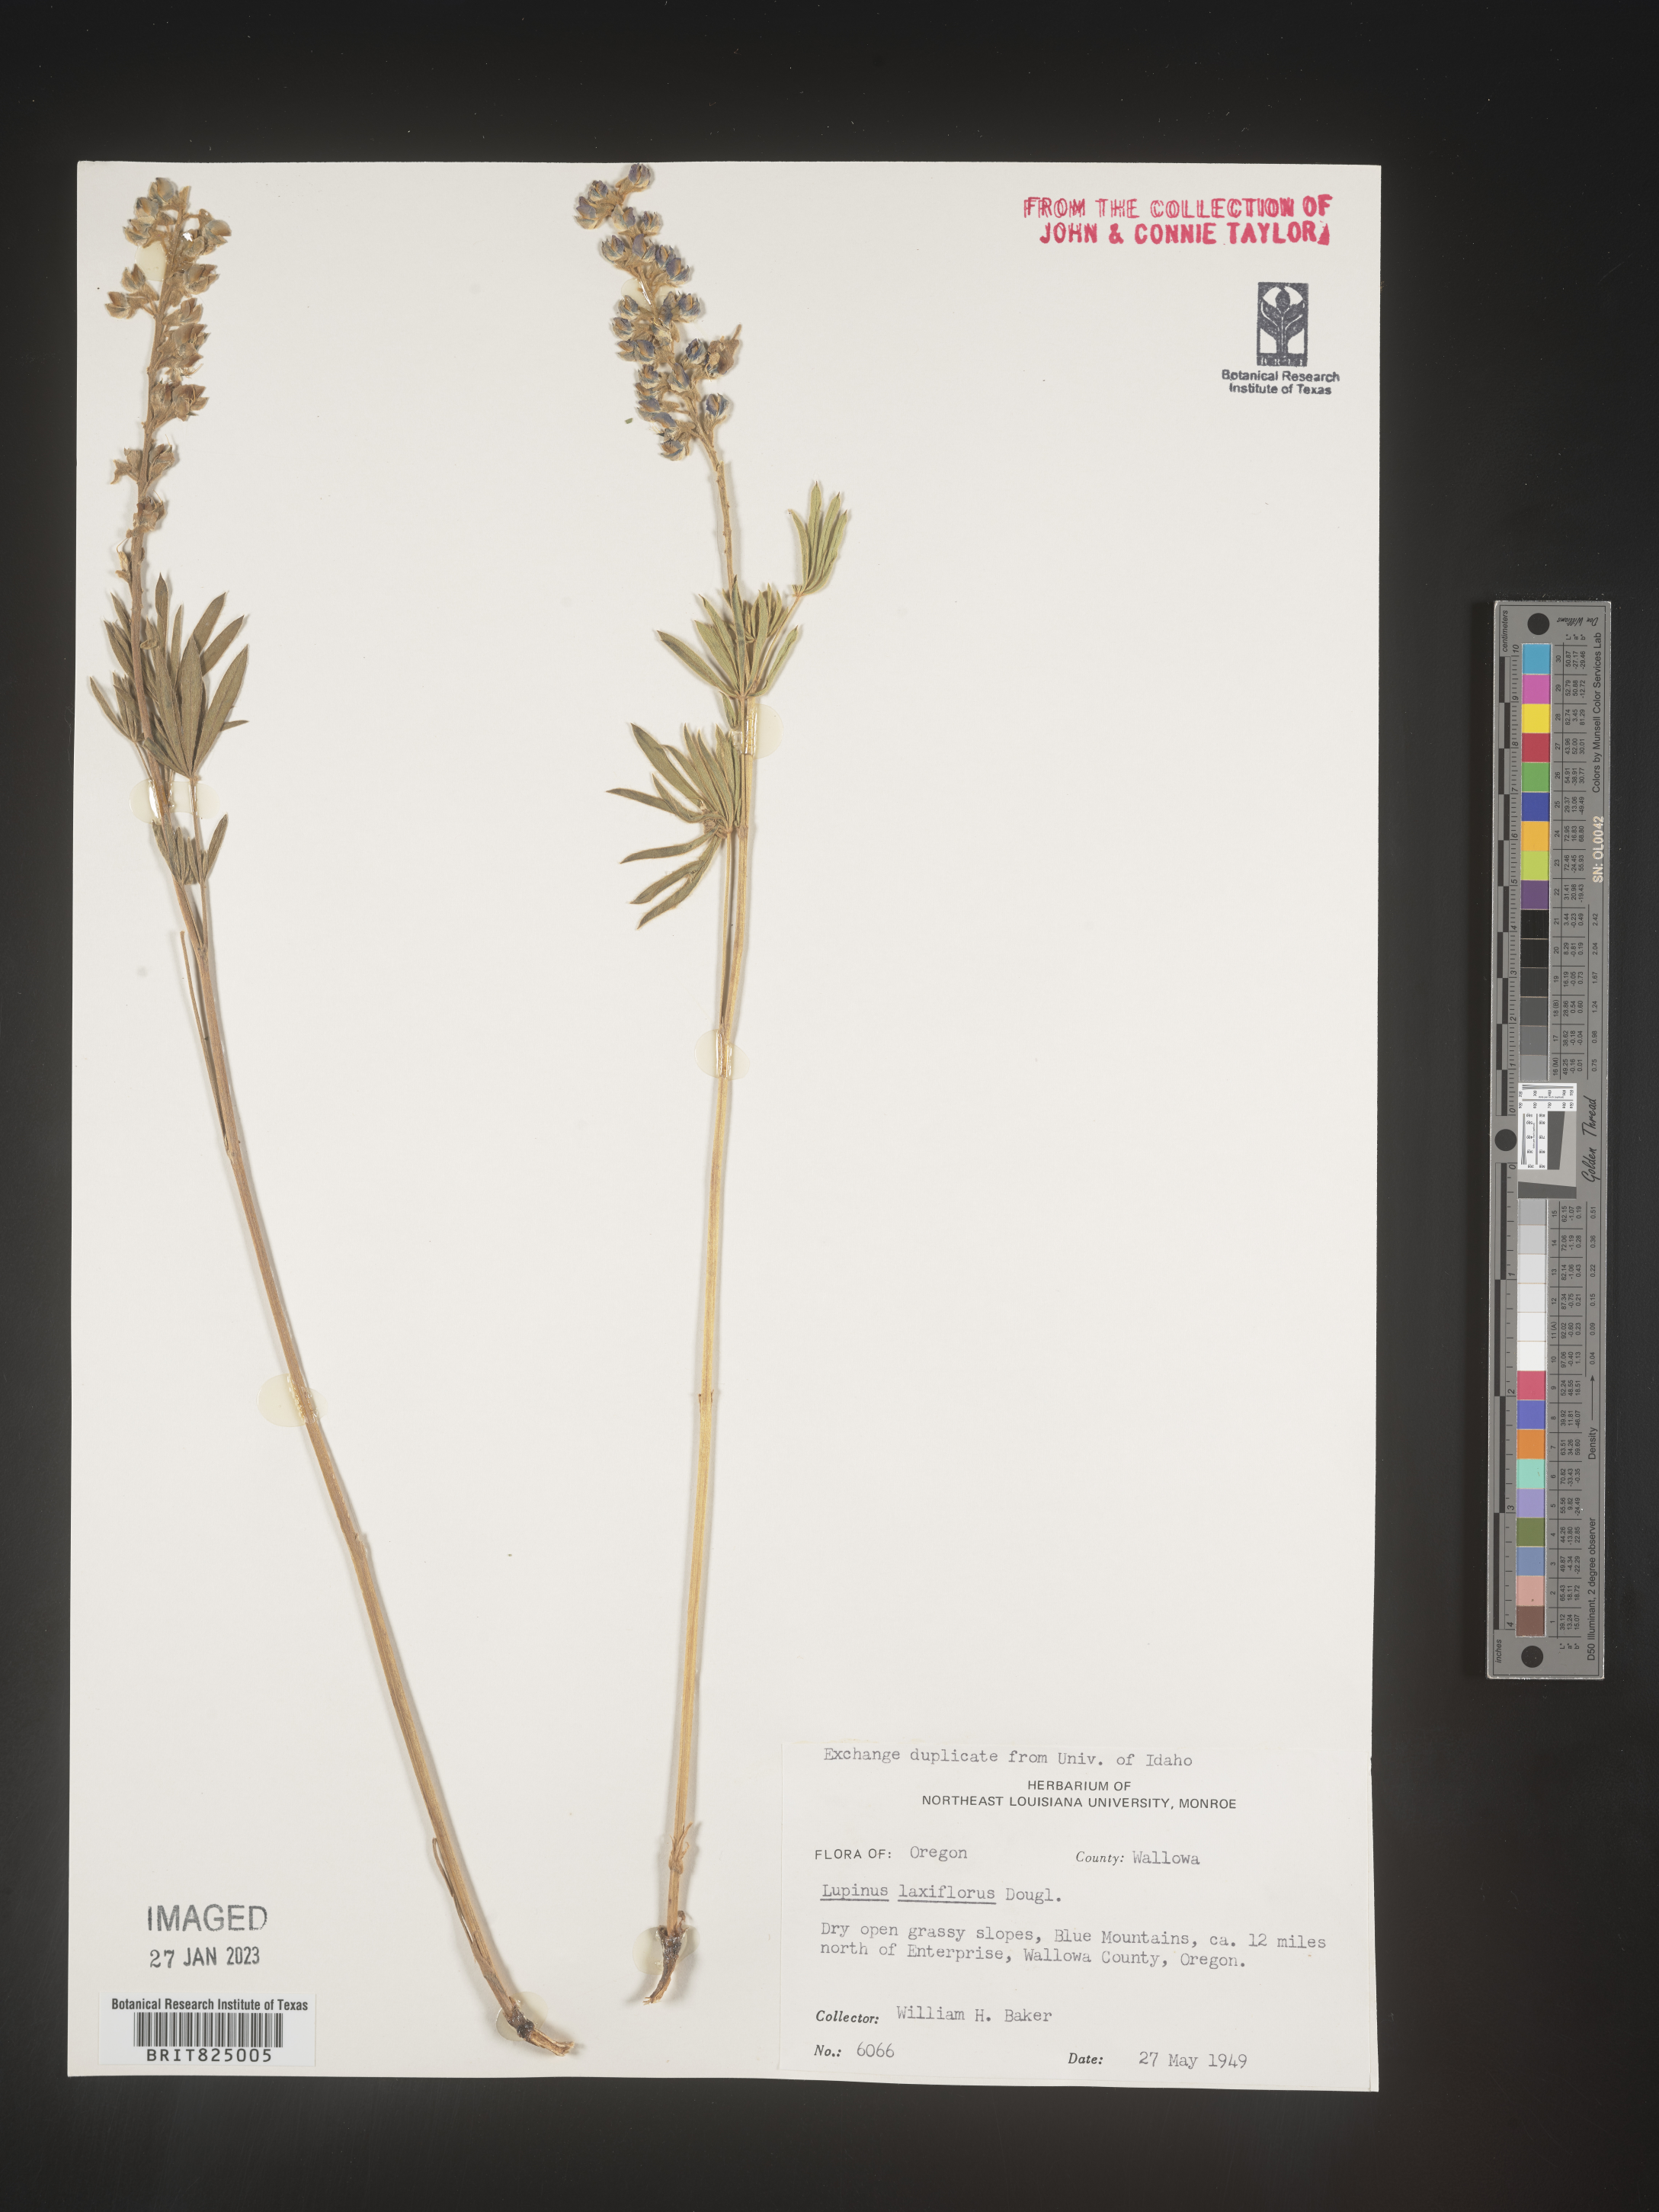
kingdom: Plantae
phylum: Tracheophyta
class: Magnoliopsida
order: Fabales
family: Fabaceae
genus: Lupinus
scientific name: Lupinus
